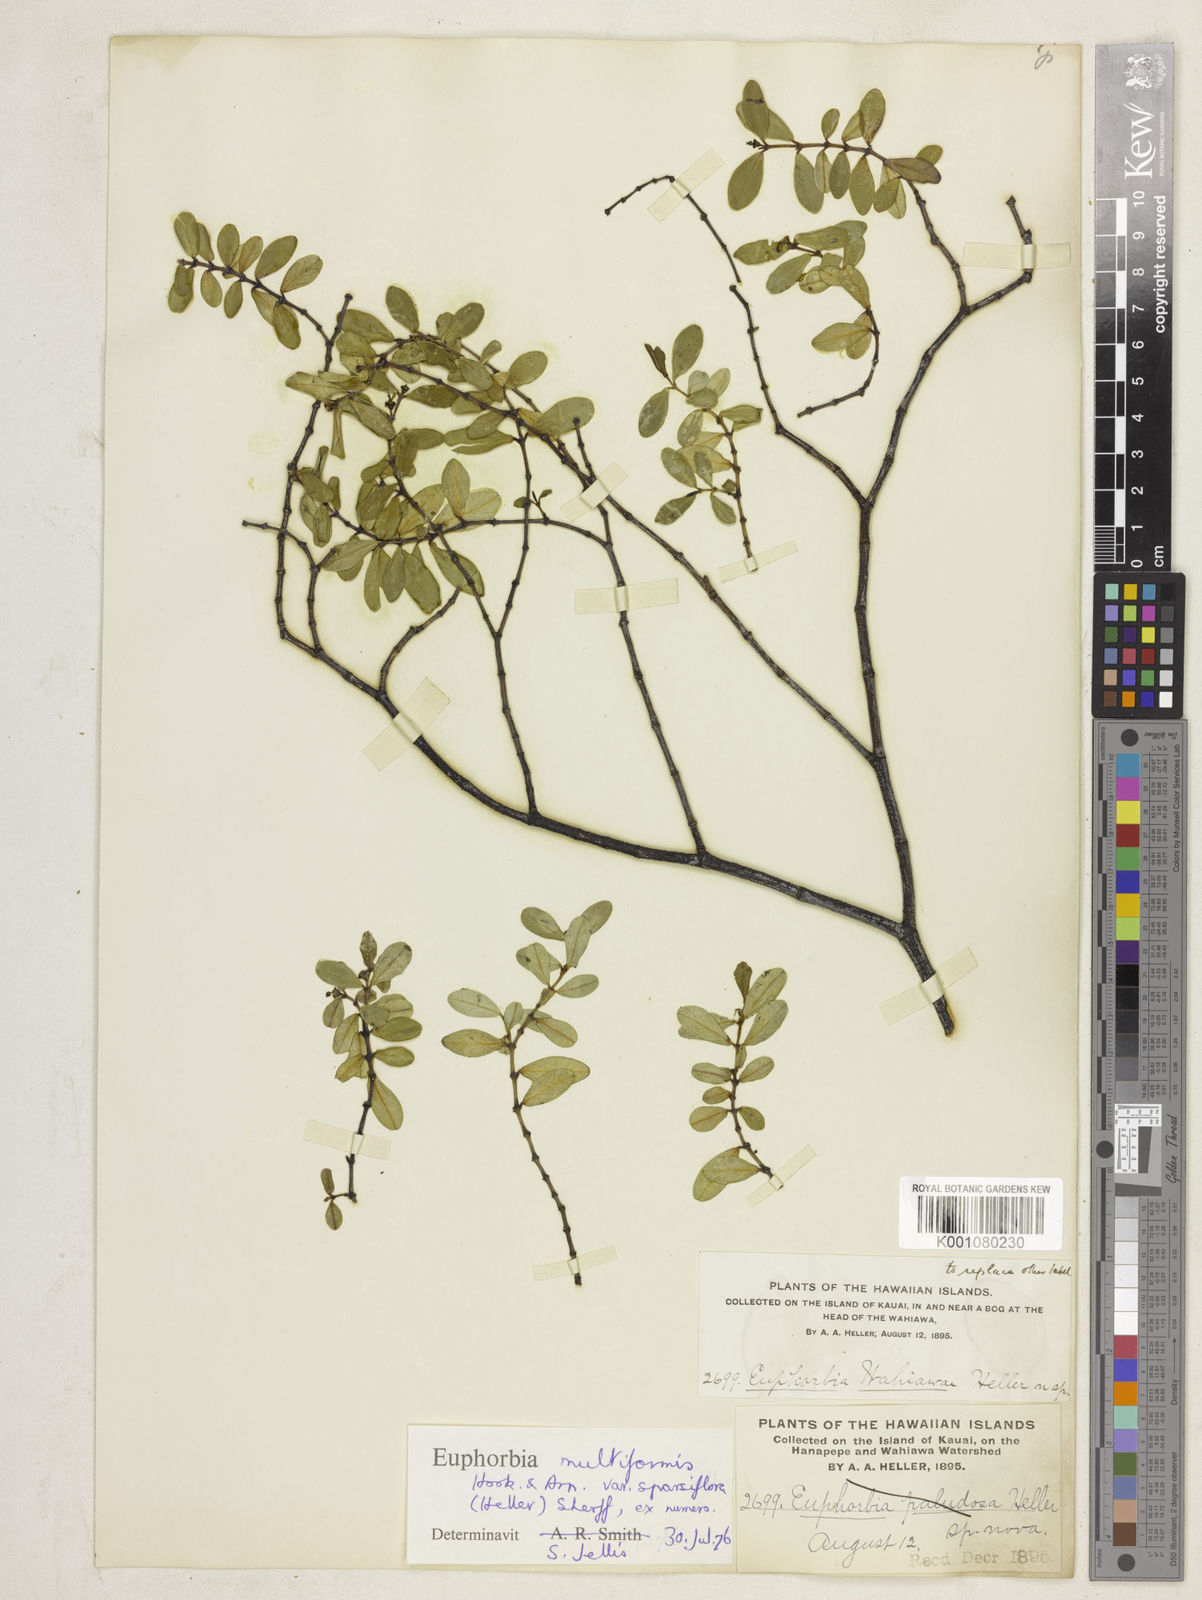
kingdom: Plantae
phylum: Tracheophyta
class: Magnoliopsida
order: Malpighiales
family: Euphorbiaceae
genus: Euphorbia
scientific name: Euphorbia multiformis
